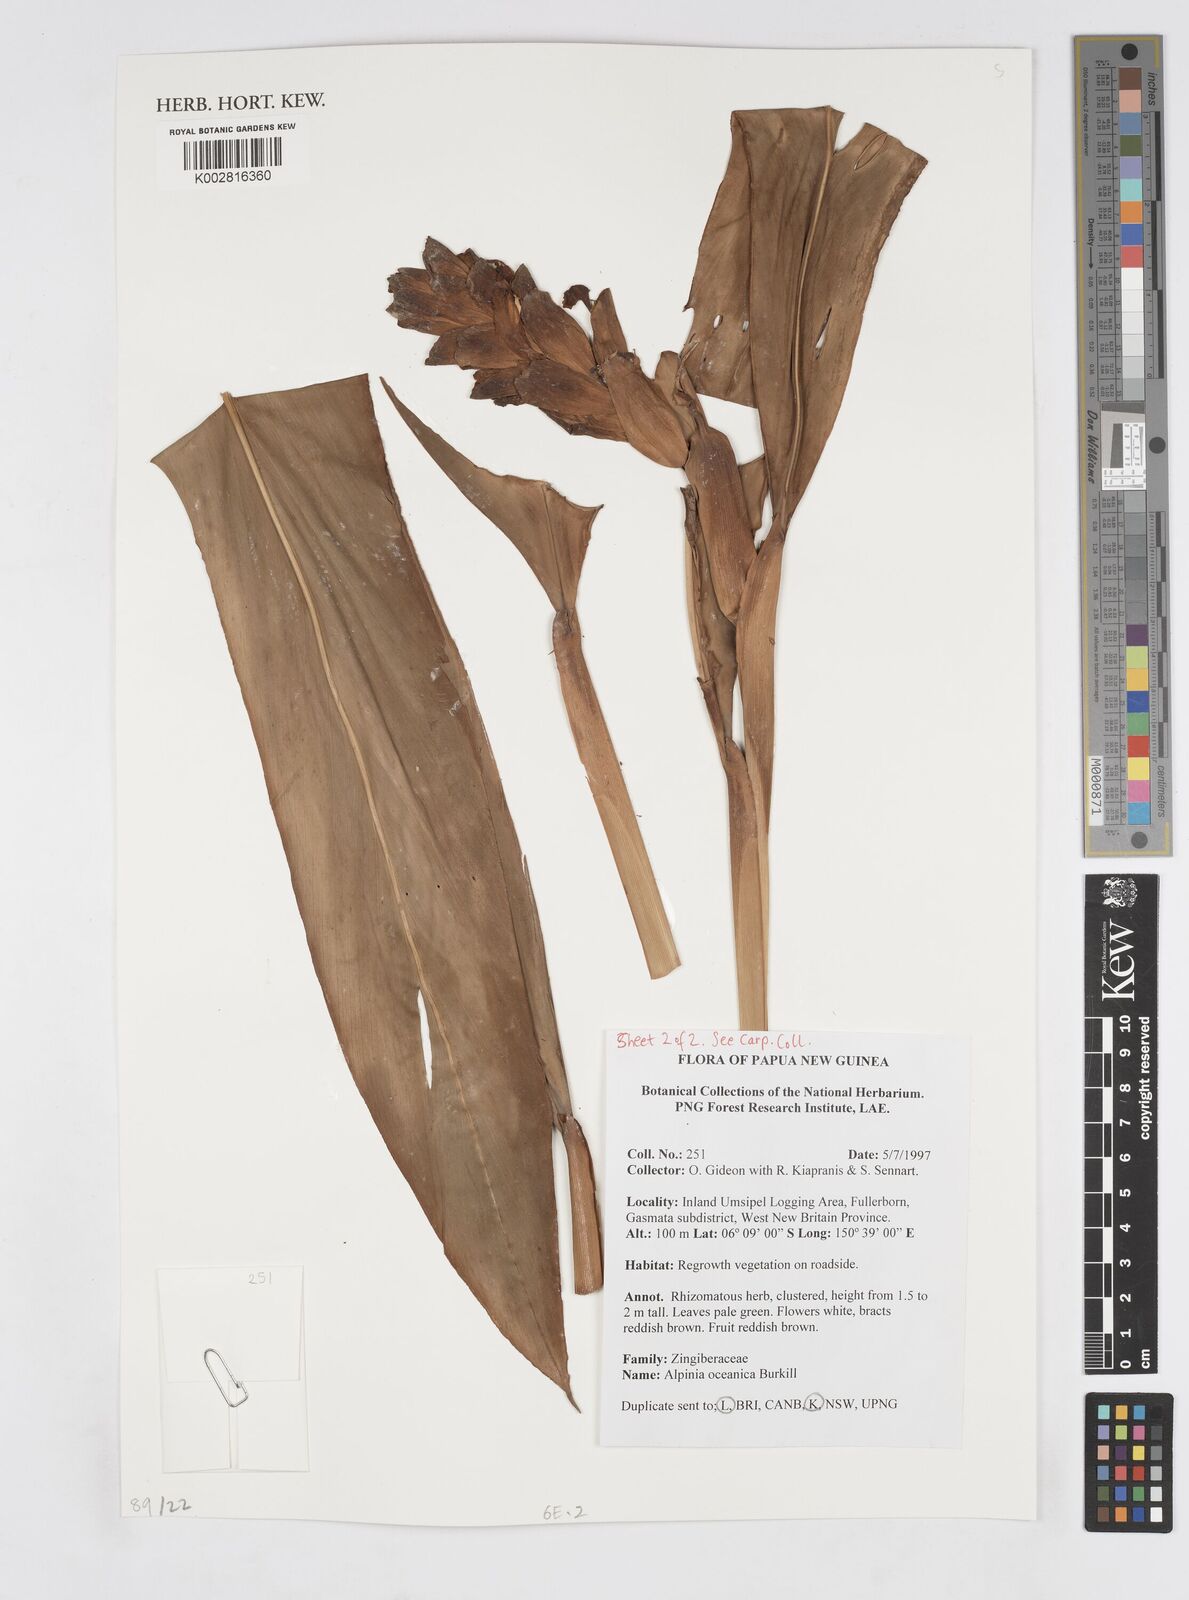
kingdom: Plantae
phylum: Tracheophyta
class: Liliopsida
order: Zingiberales
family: Zingiberaceae
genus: Alpinia
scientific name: Alpinia oceanica
